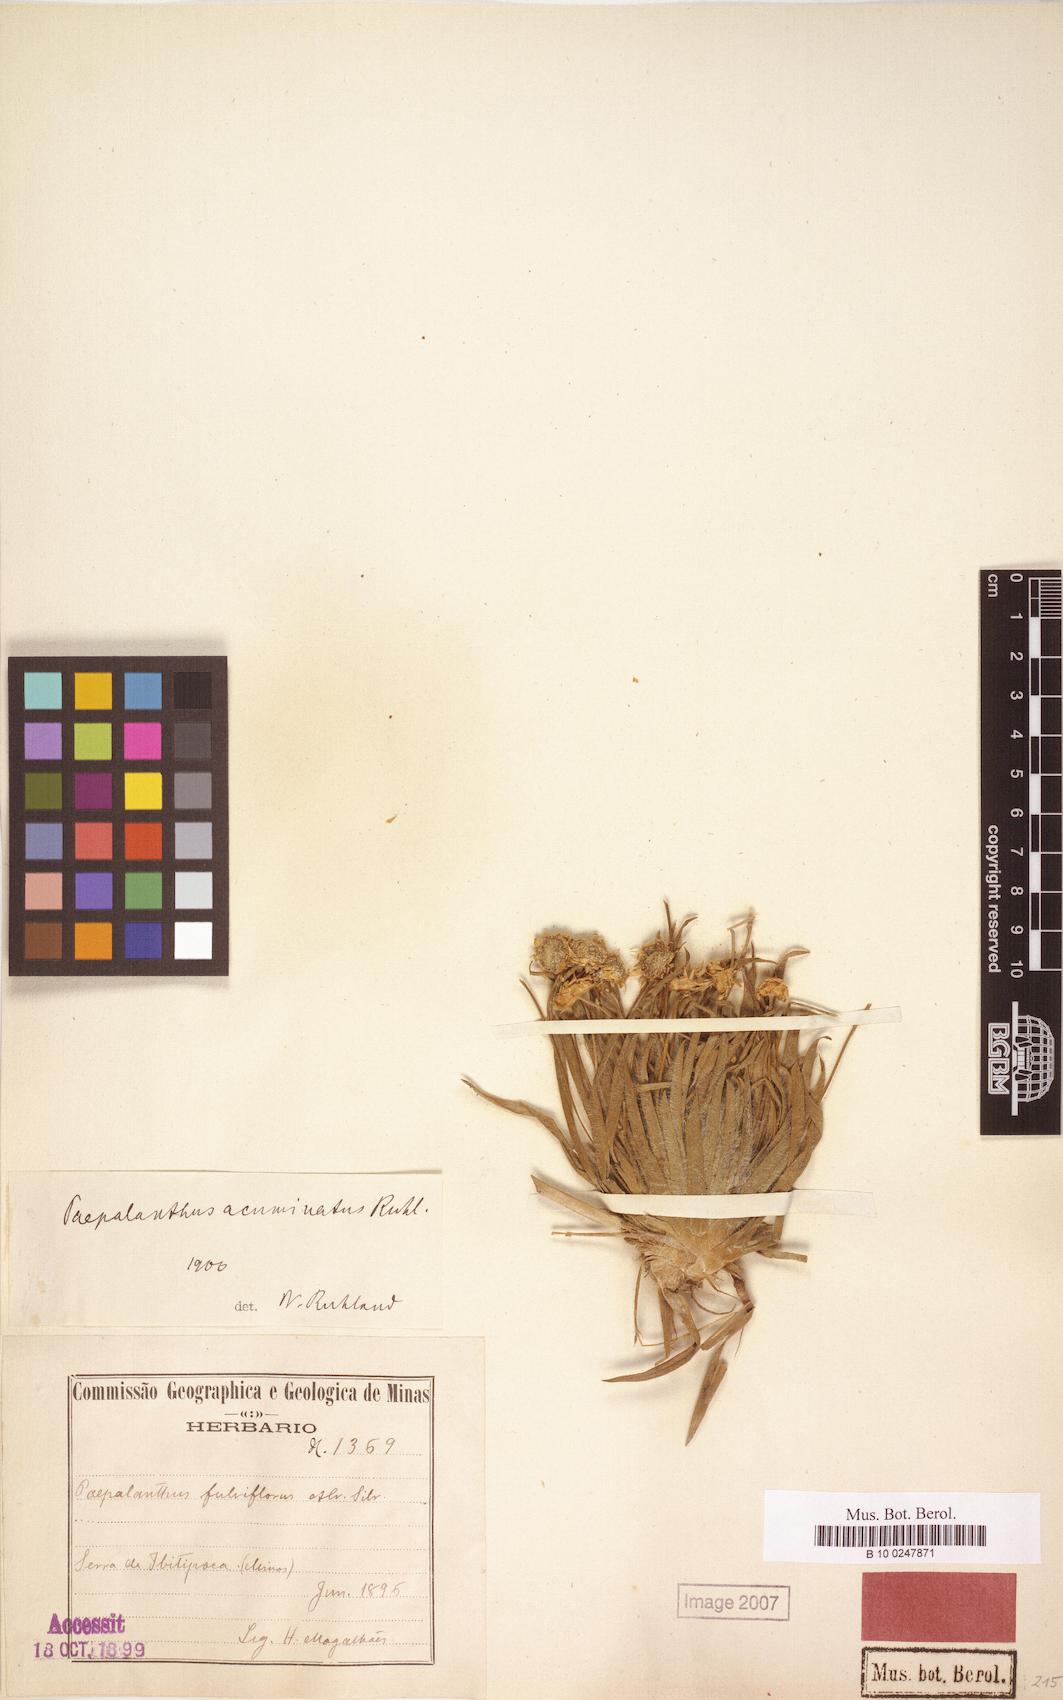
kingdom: Plantae
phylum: Tracheophyta
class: Liliopsida
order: Poales
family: Eriocaulaceae
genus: Paepalanthus
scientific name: Paepalanthus acuminatus
